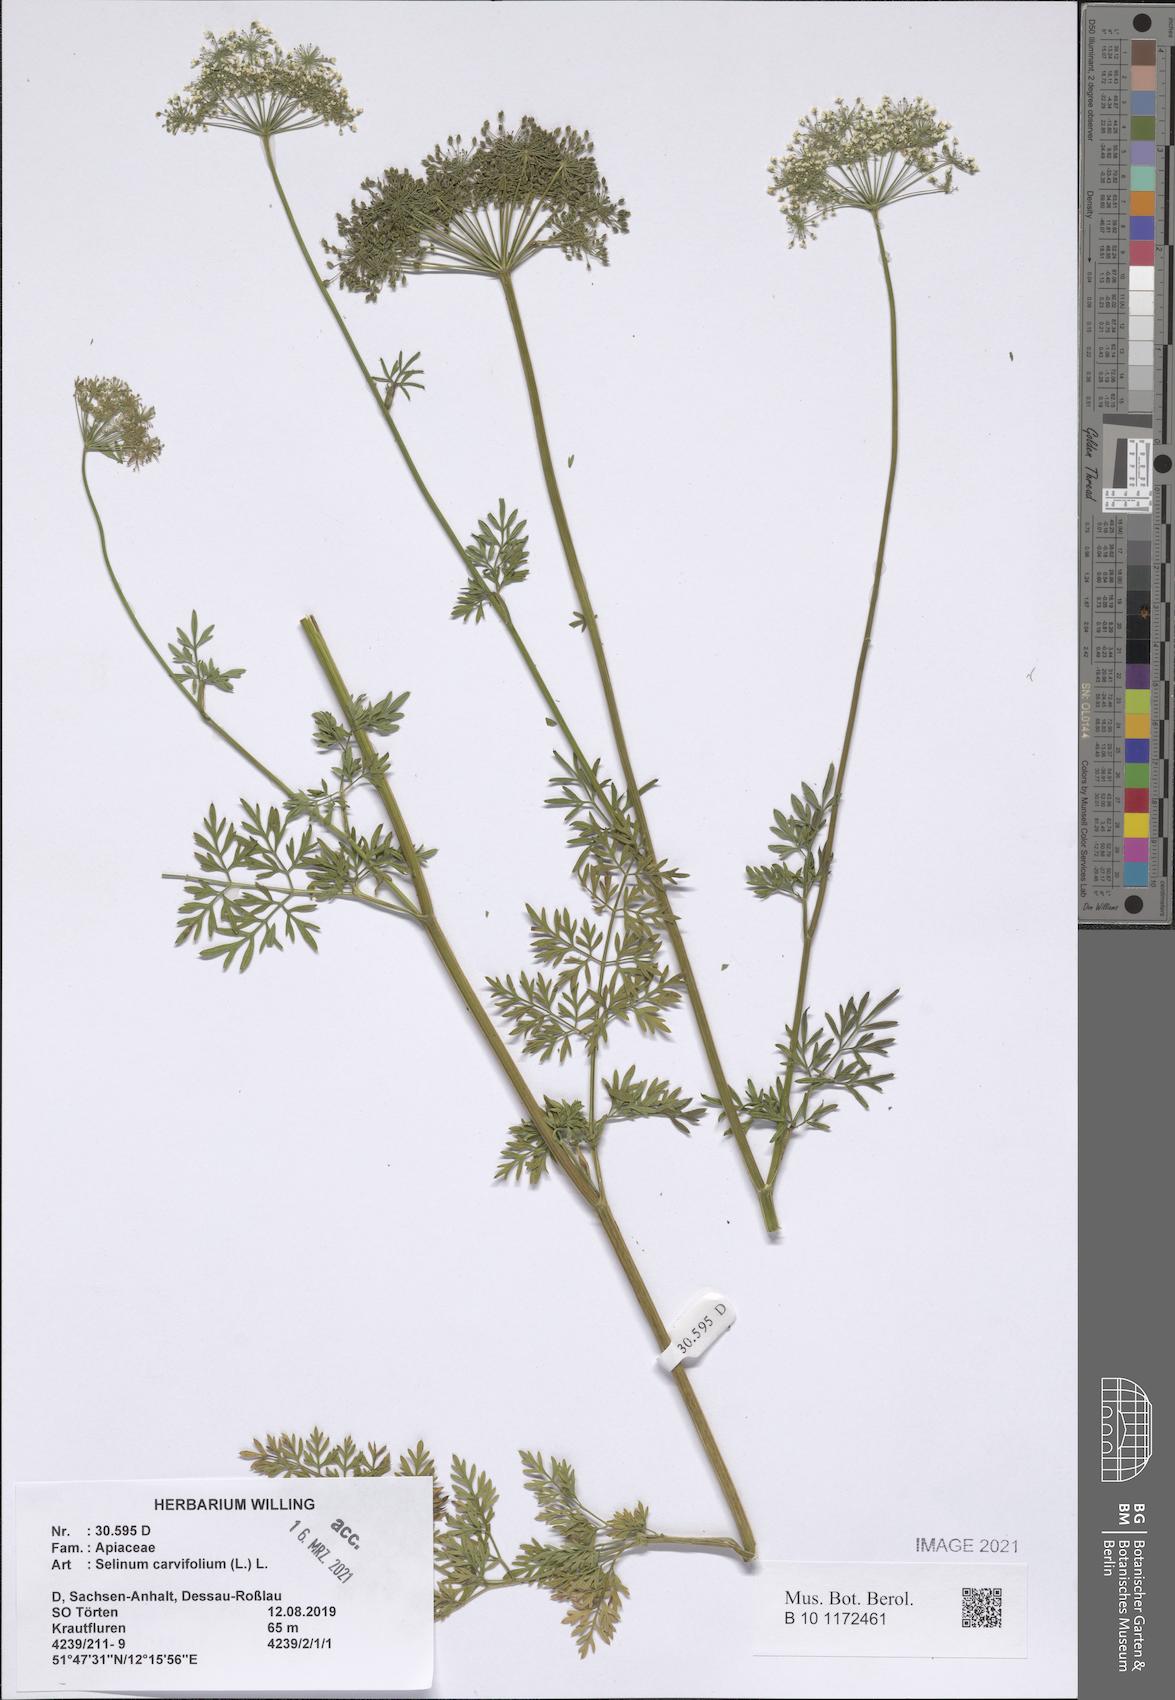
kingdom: Plantae
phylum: Tracheophyta
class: Magnoliopsida
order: Apiales
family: Apiaceae
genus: Selinum
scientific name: Selinum carvifolia
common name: Cambridge milk-parsley
